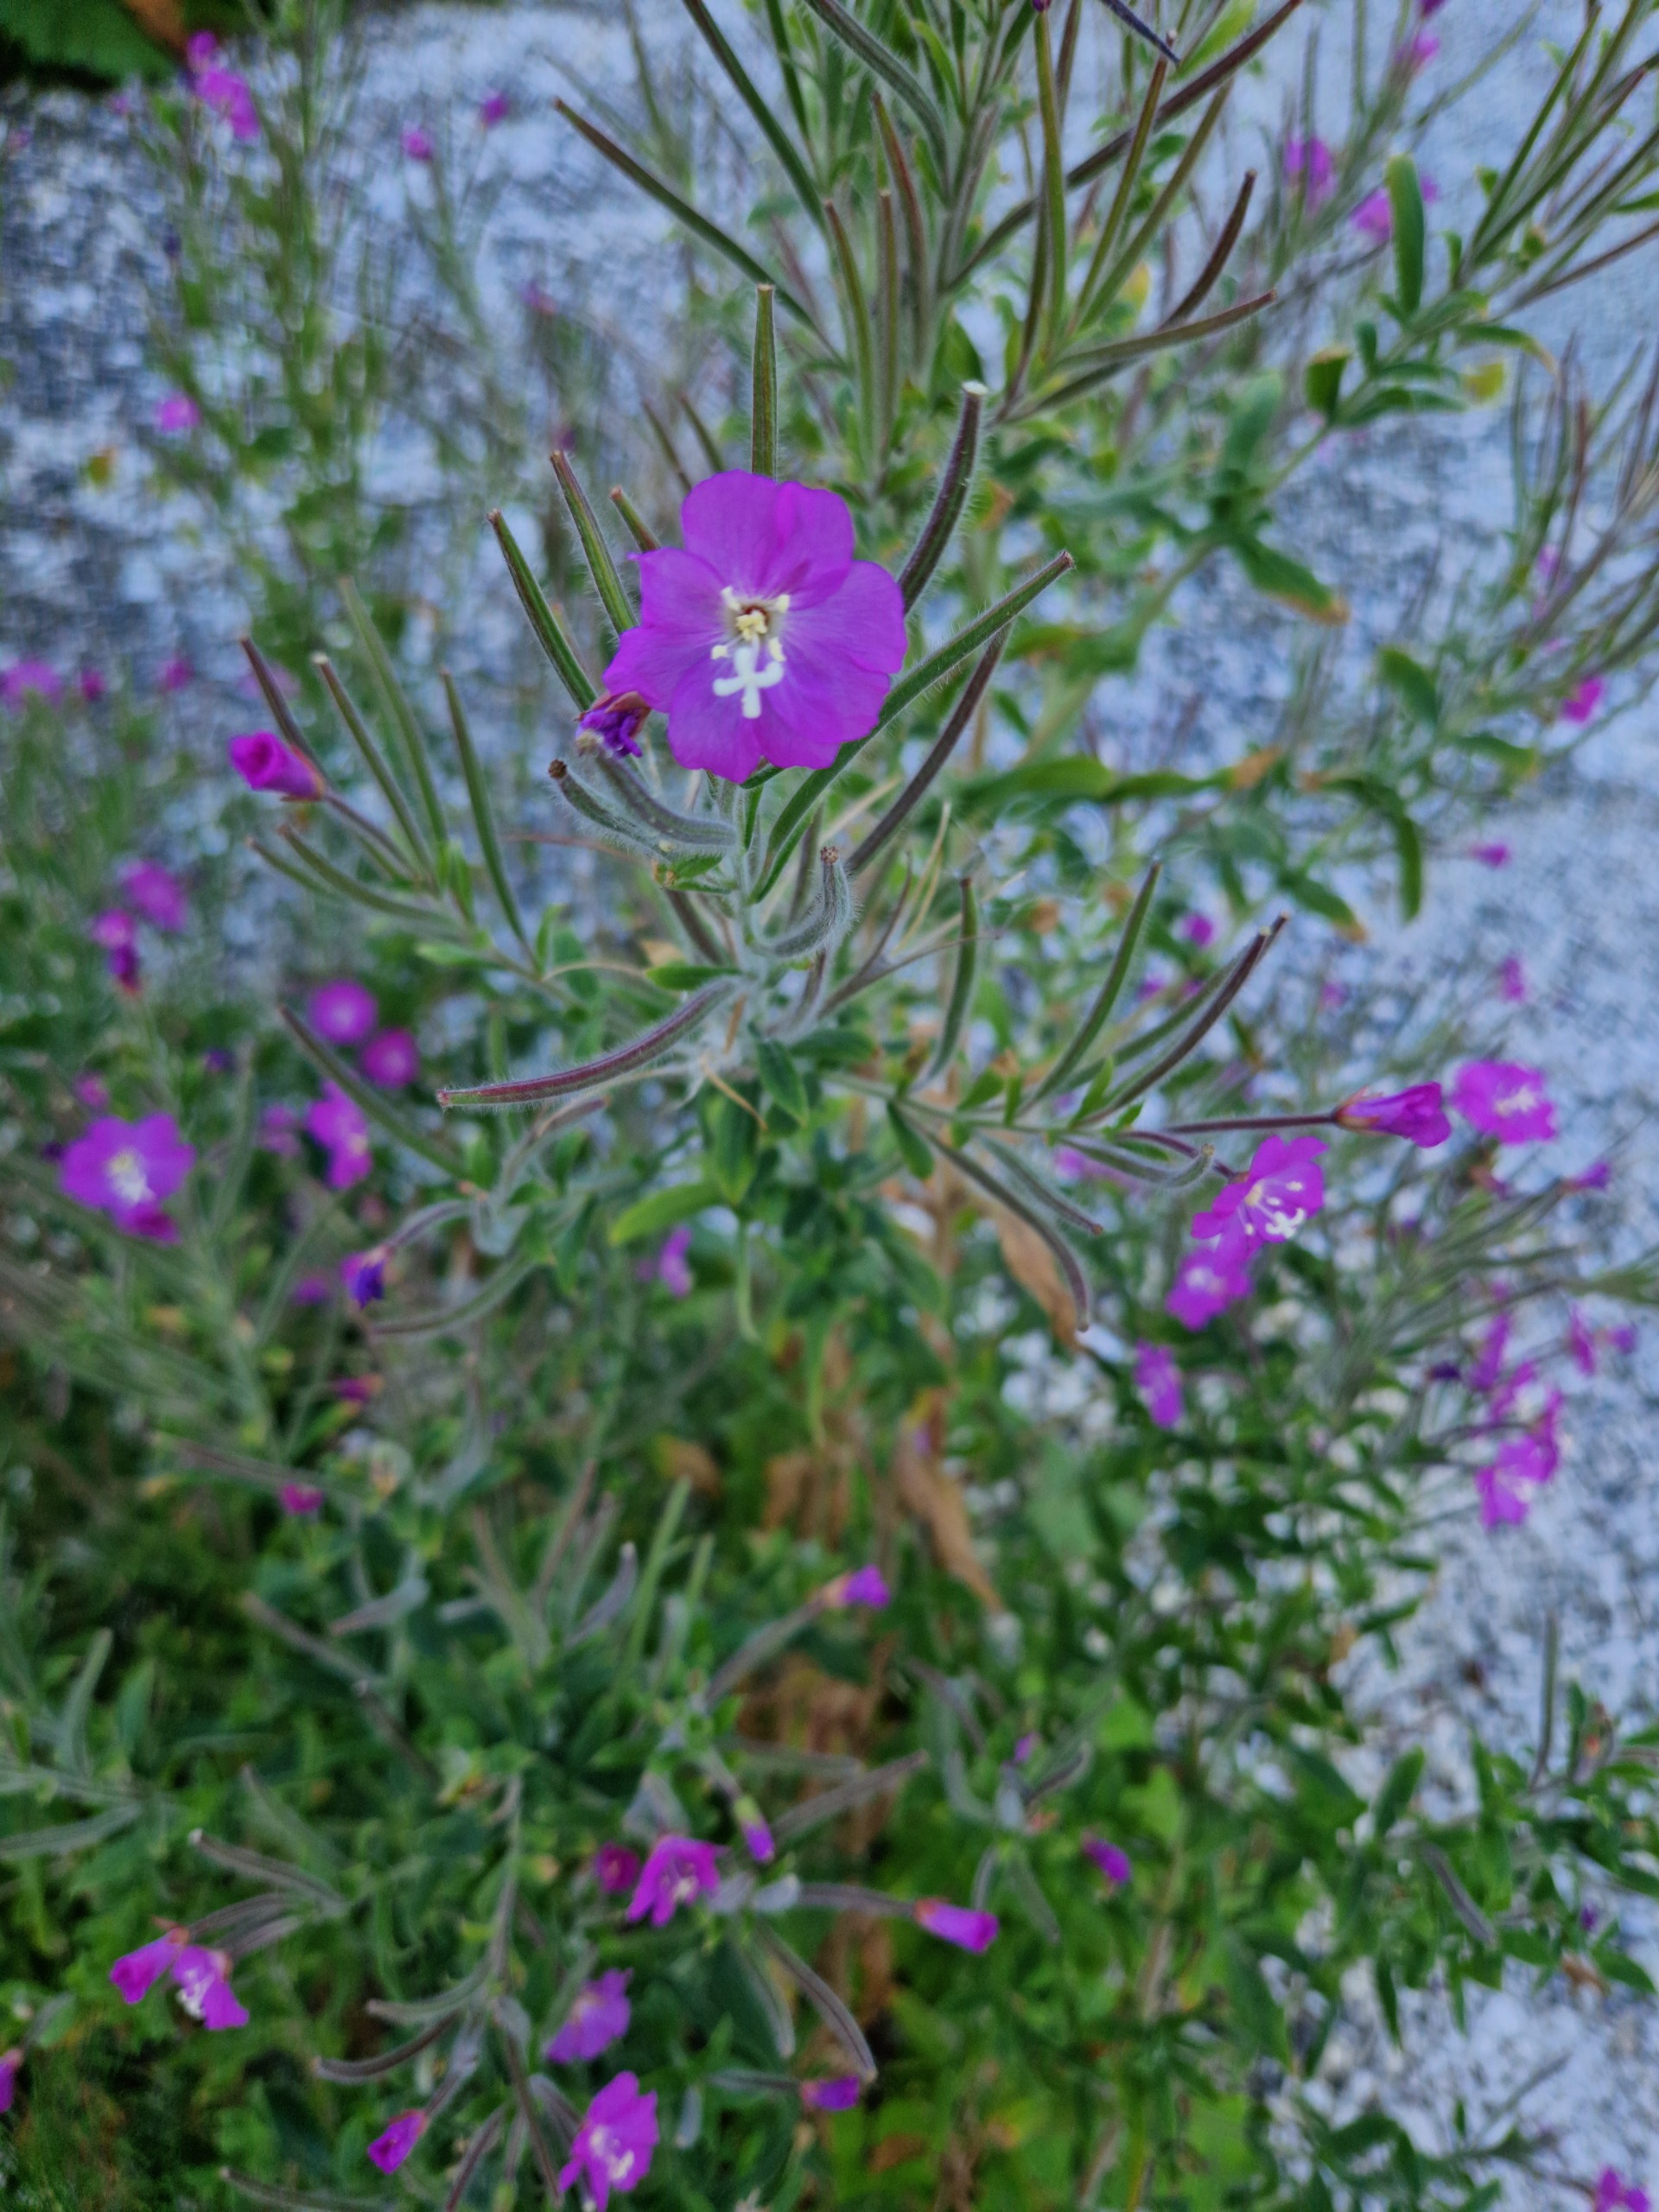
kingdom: Plantae
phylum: Tracheophyta
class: Magnoliopsida
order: Myrtales
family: Onagraceae
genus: Epilobium
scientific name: Epilobium hirsutum
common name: Lådden dueurt
